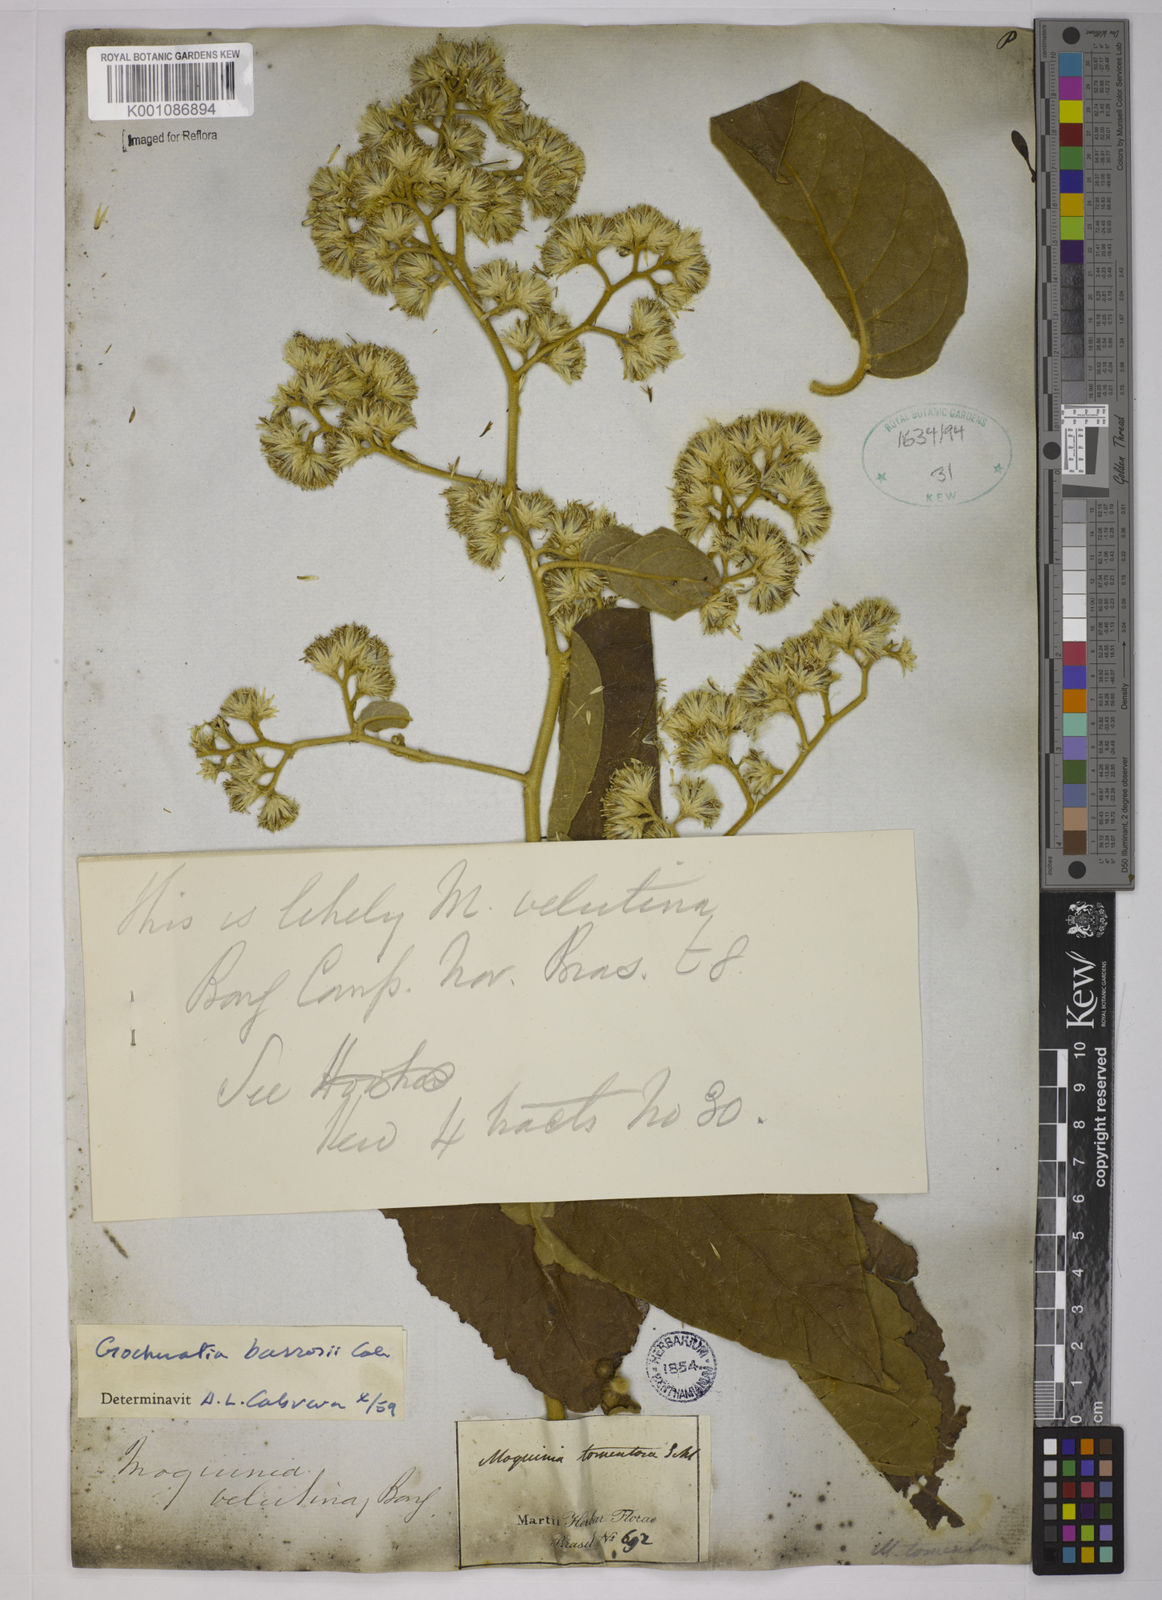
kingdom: Plantae
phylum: Tracheophyta
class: Magnoliopsida
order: Asterales
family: Asteraceae
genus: Moquiniastrum
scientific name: Moquiniastrum barrosoae
